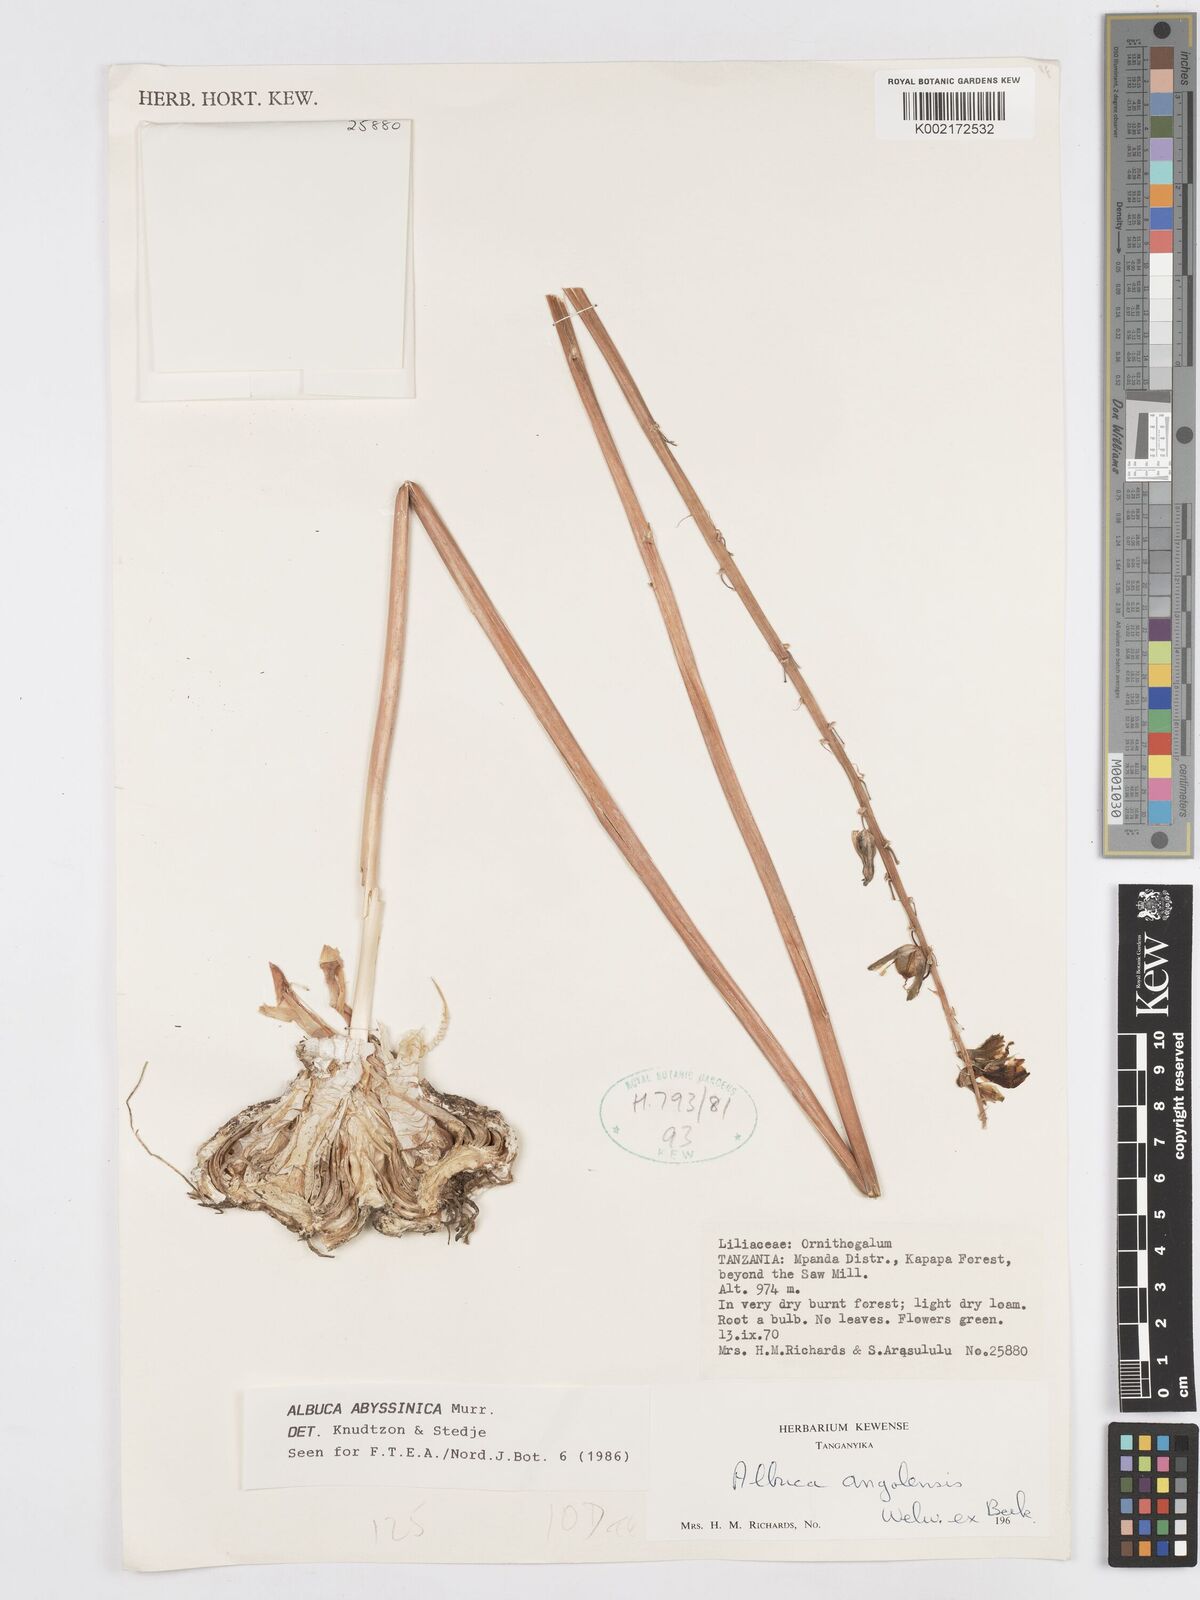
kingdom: Plantae
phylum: Tracheophyta
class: Liliopsida
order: Asparagales
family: Asparagaceae
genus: Albuca
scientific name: Albuca abyssinica
